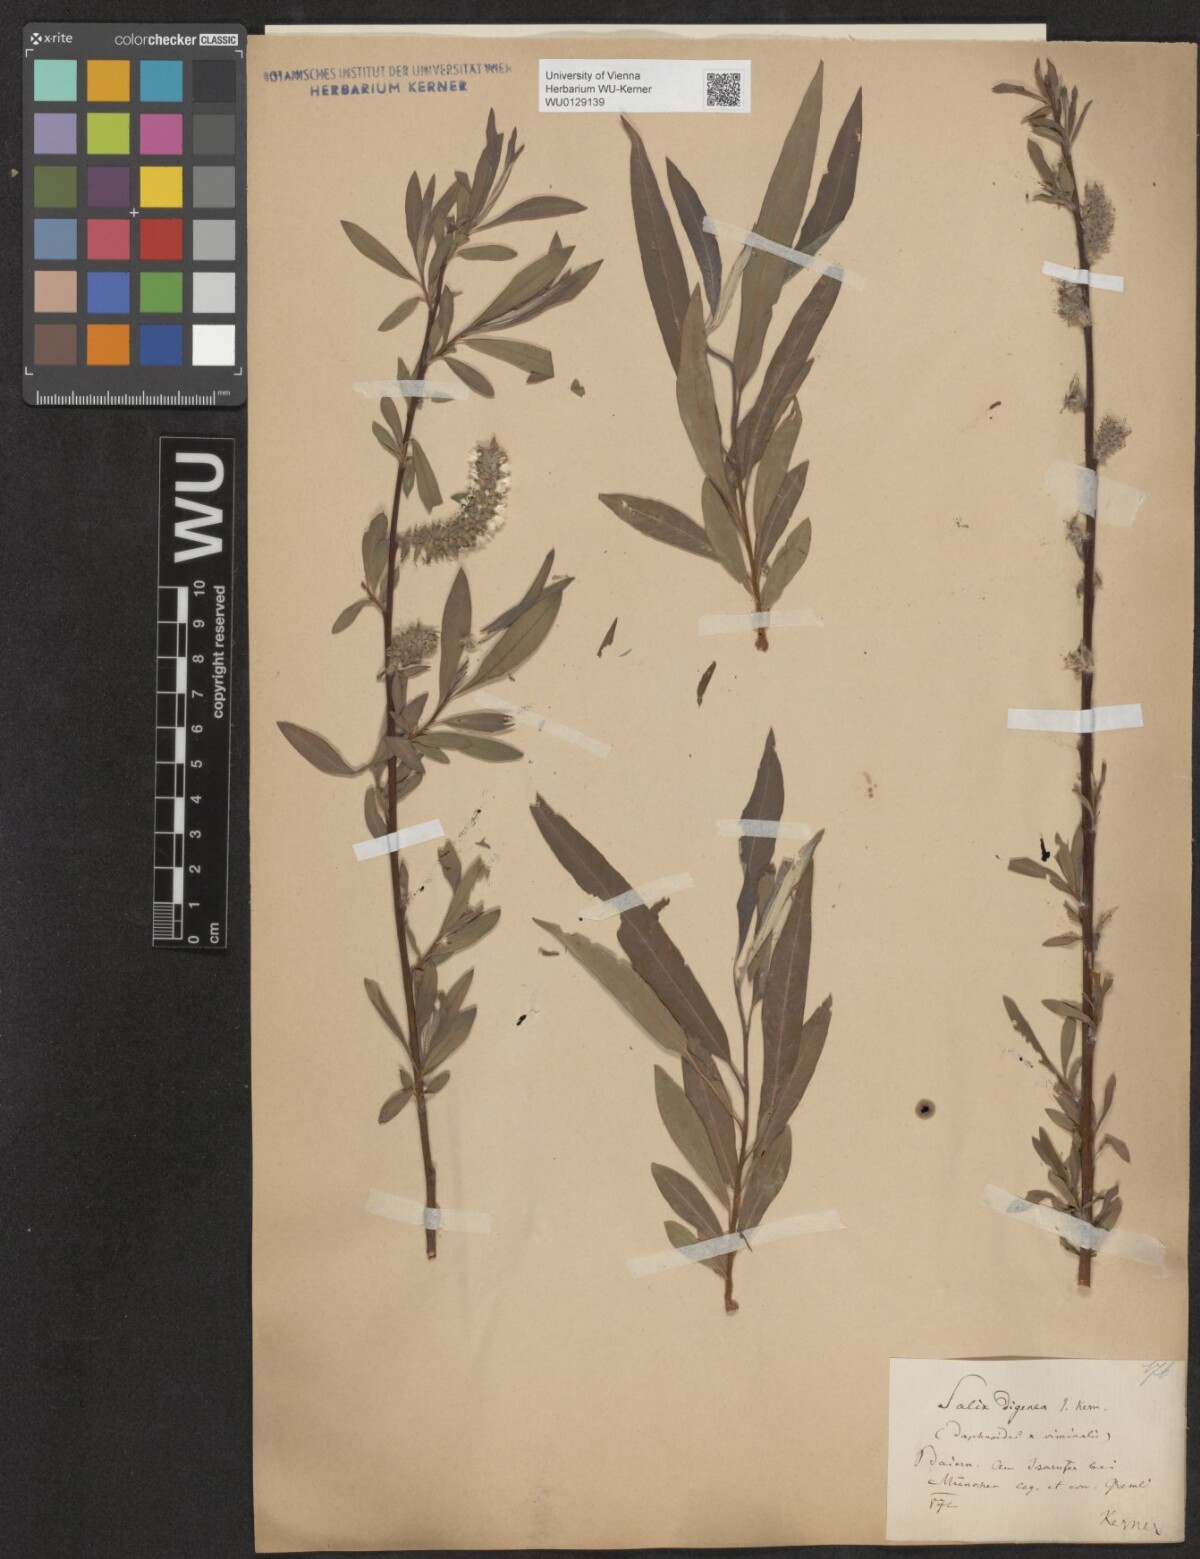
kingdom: Plantae
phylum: Tracheophyta
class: Magnoliopsida
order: Malpighiales
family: Salicaceae
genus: Salix
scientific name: Salix digenea
